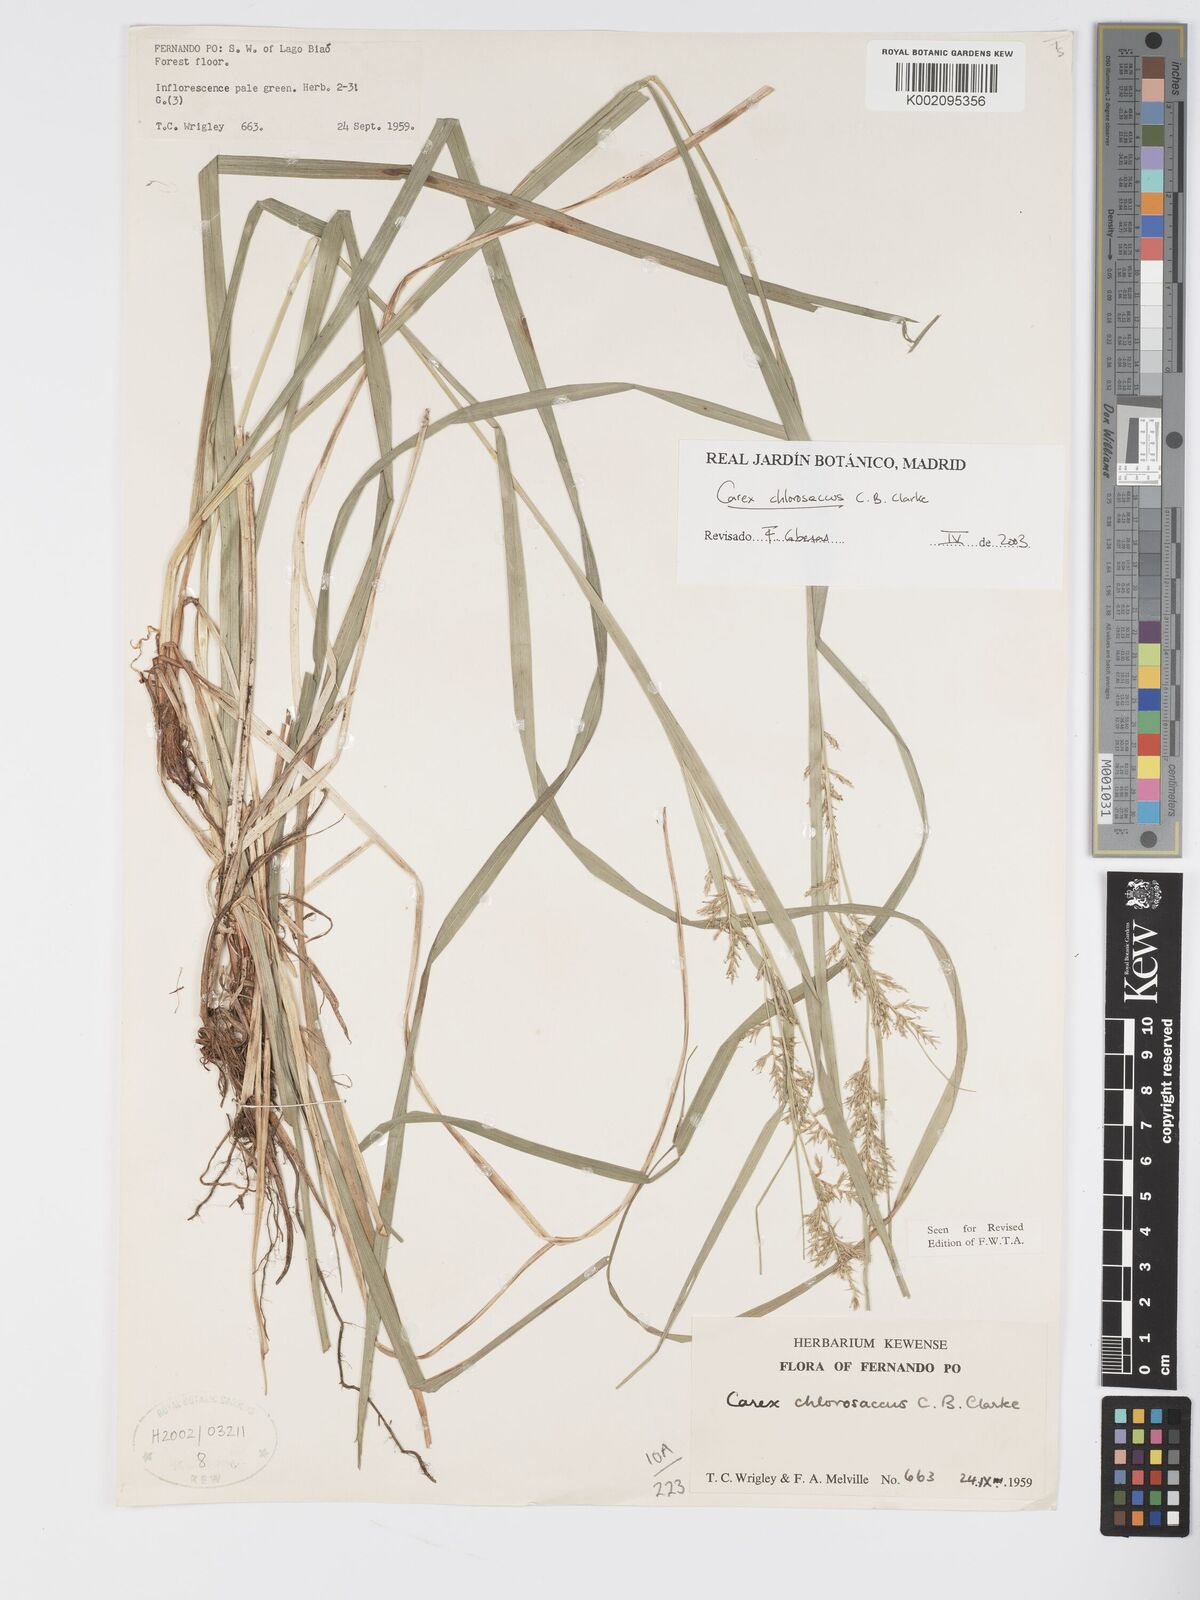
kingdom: Plantae
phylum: Tracheophyta
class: Liliopsida
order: Poales
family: Cyperaceae
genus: Carex
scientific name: Carex chlorosaccus
